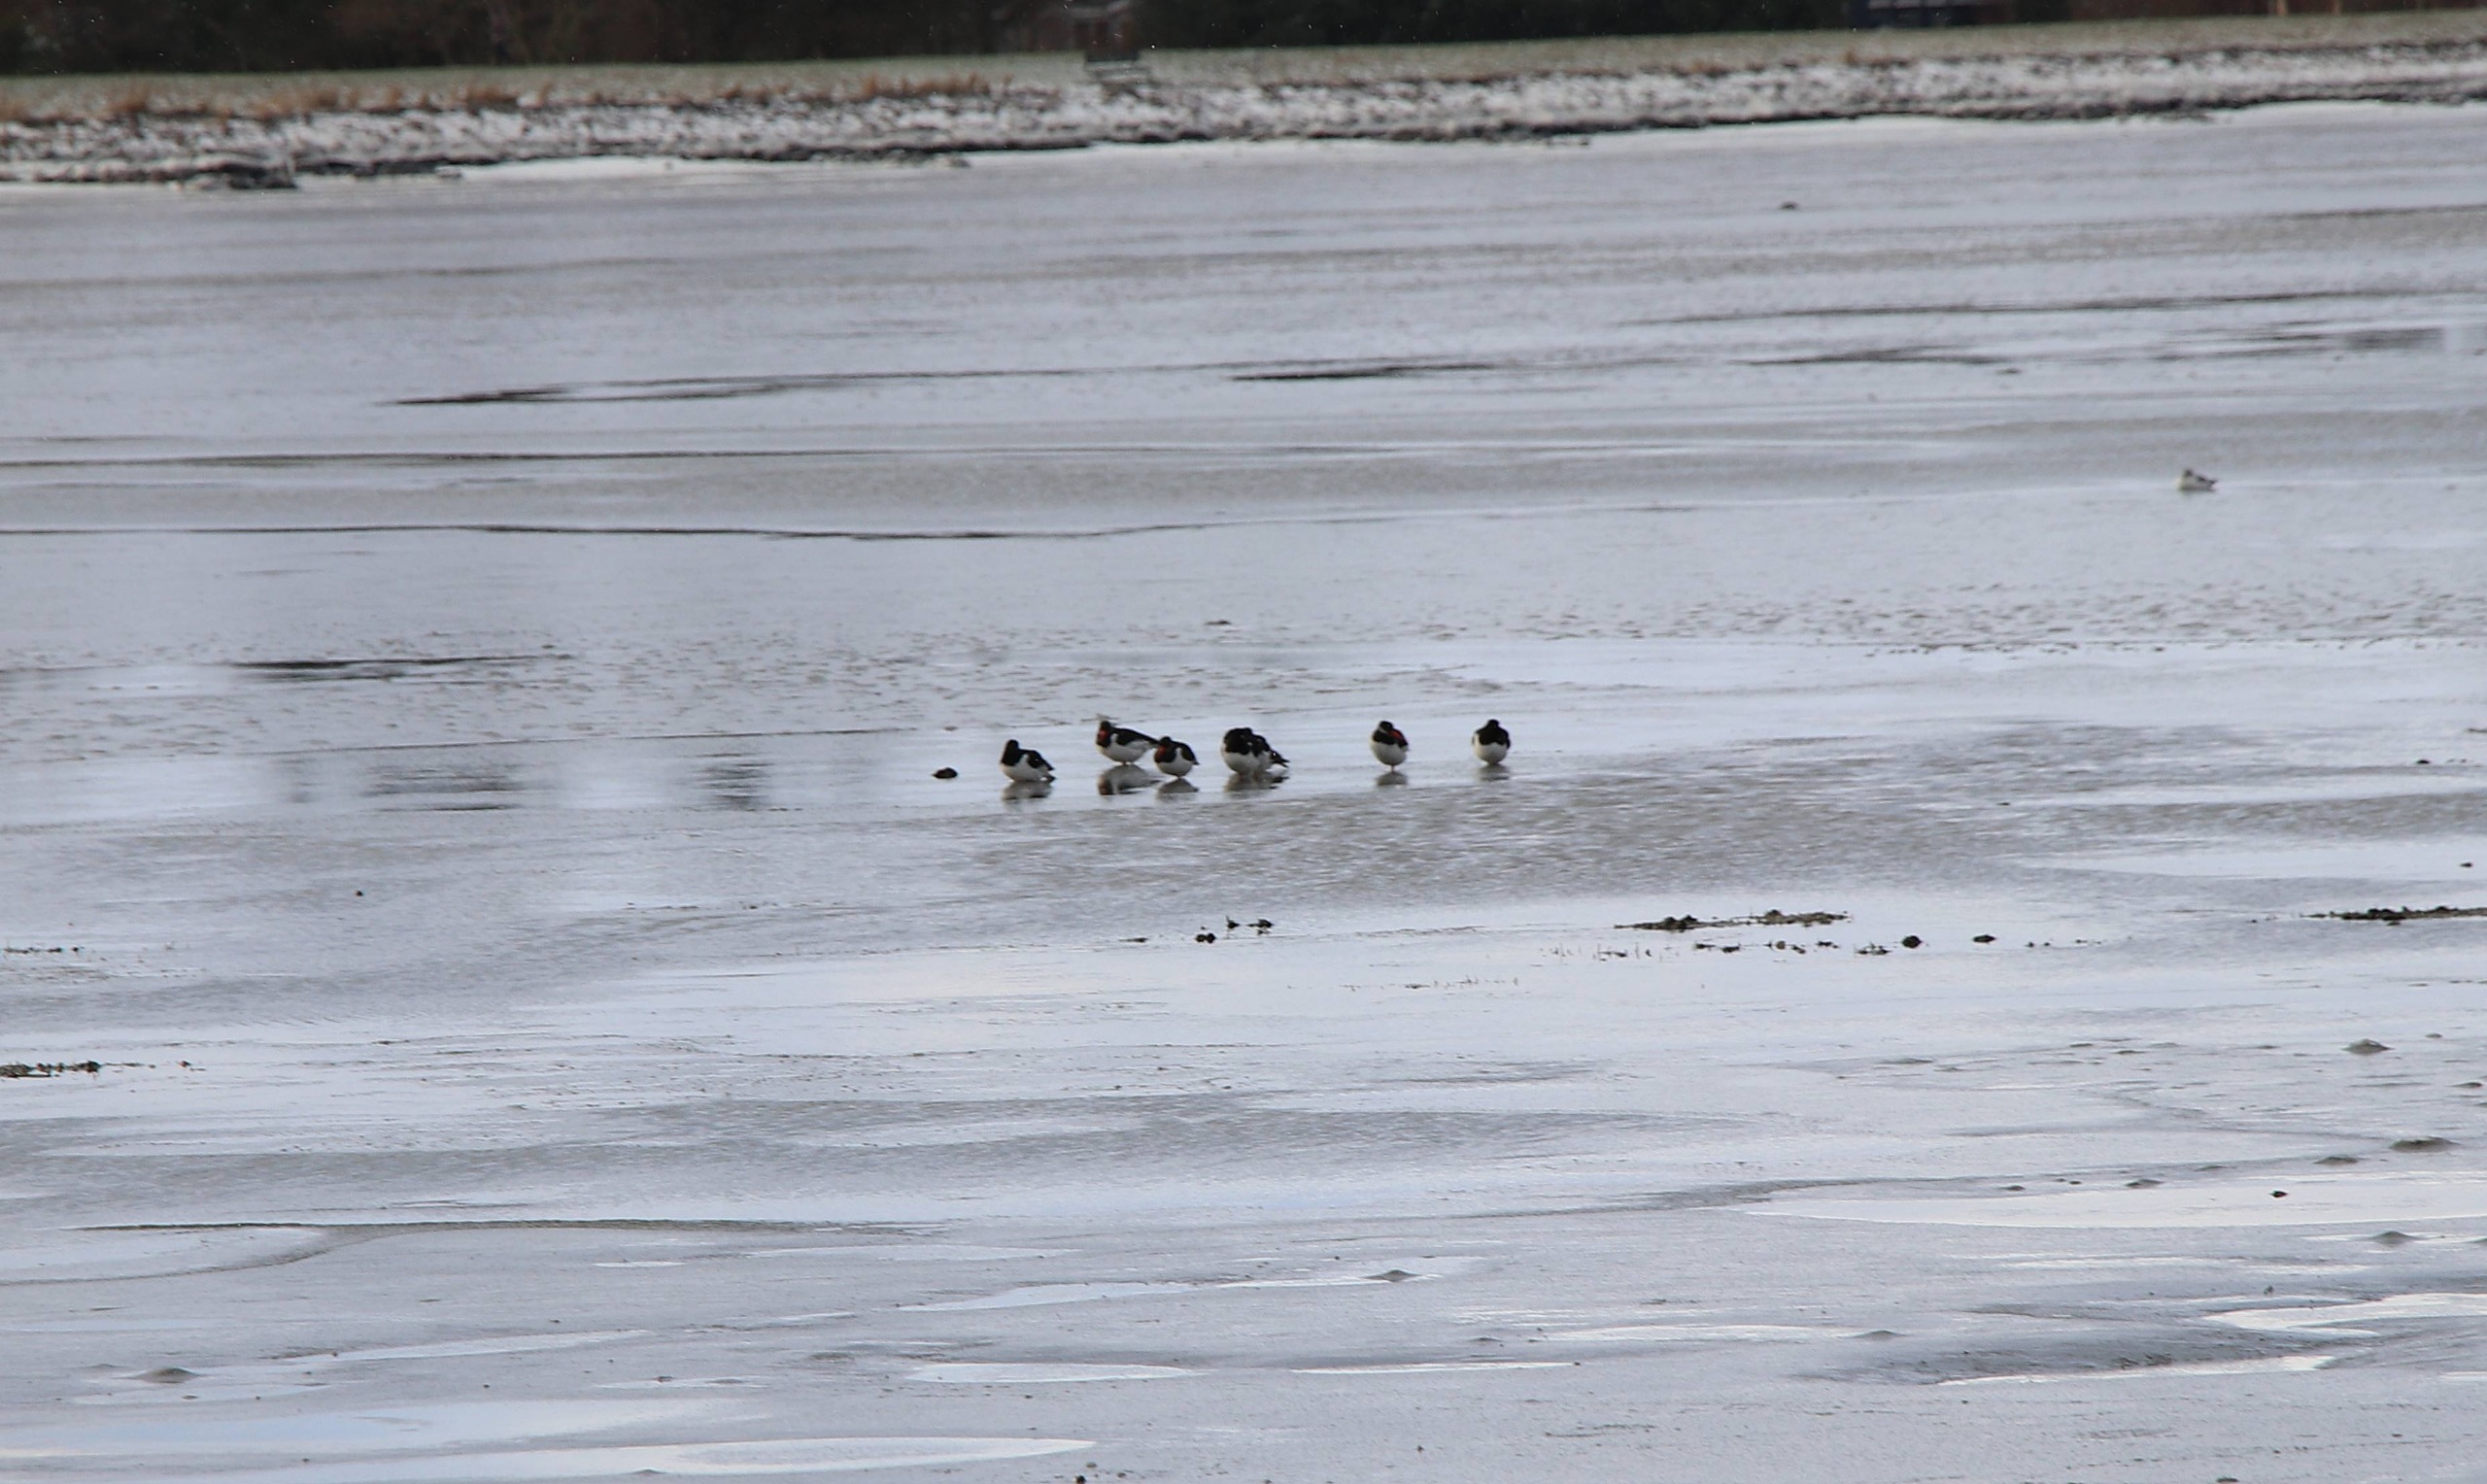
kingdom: Animalia
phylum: Chordata
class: Aves
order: Charadriiformes
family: Haematopodidae
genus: Haematopus
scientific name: Haematopus ostralegus
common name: Strandskade
